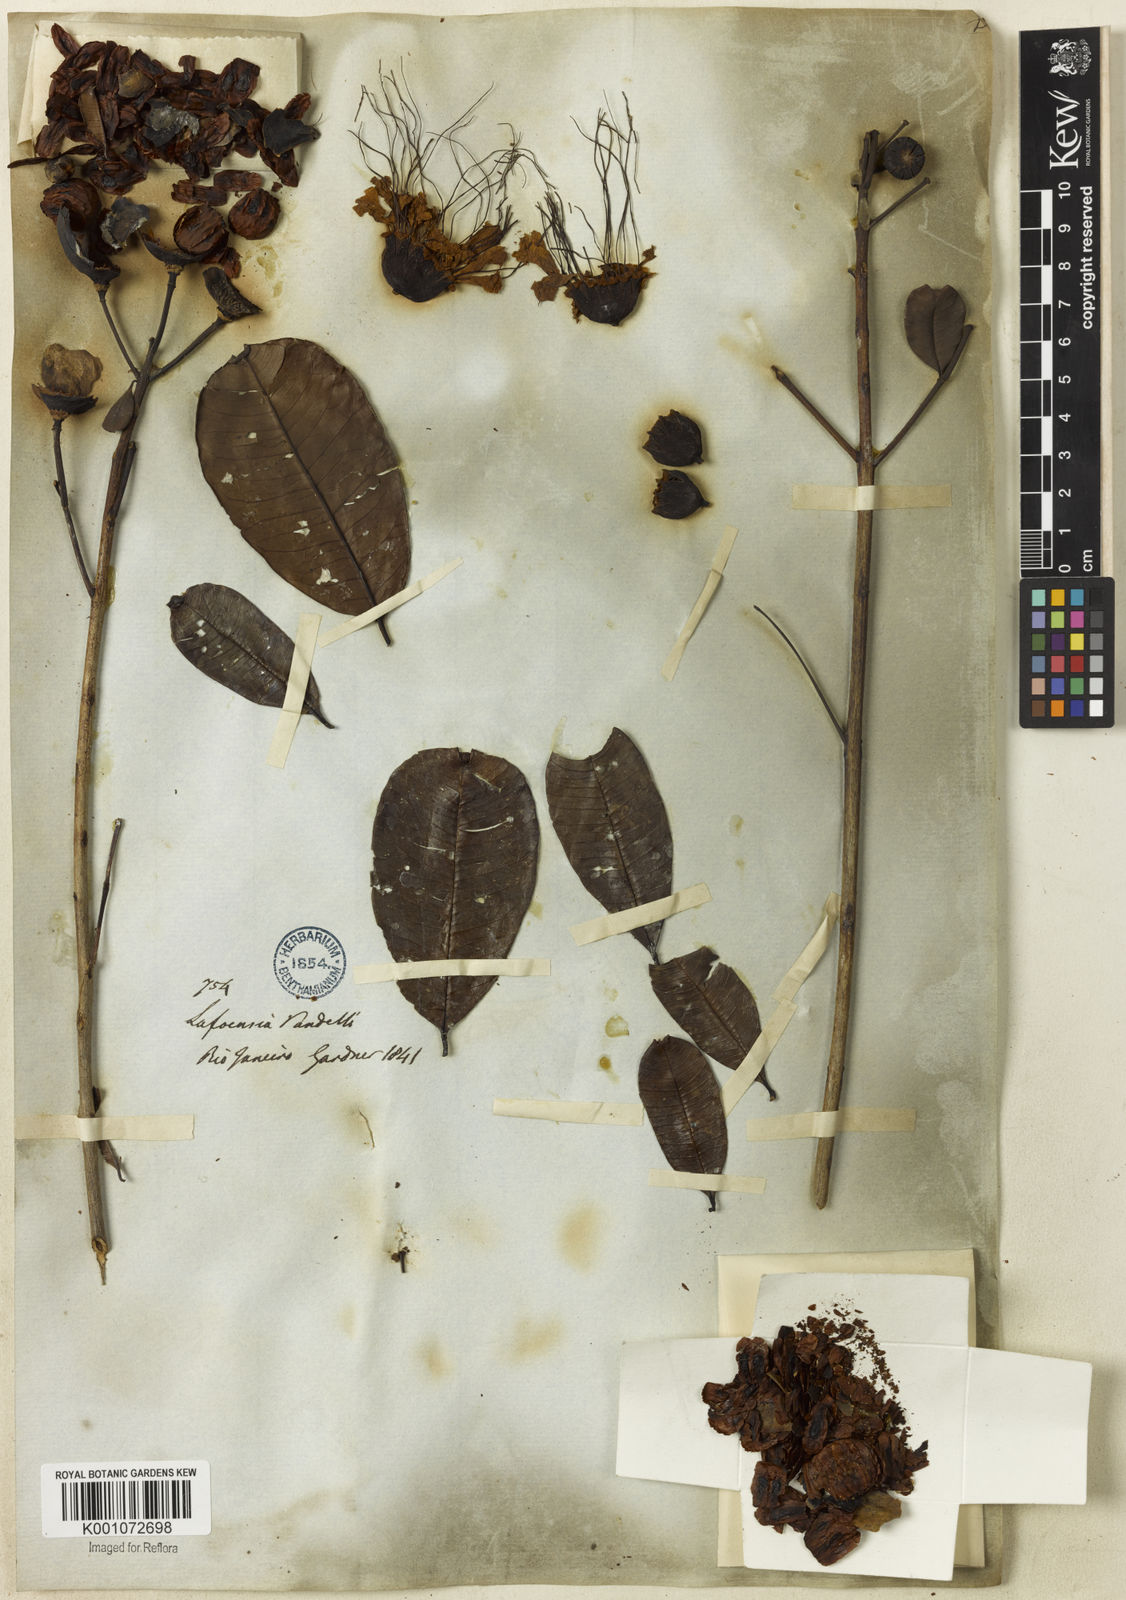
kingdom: Plantae
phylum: Tracheophyta
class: Magnoliopsida
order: Myrtales
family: Lythraceae
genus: Lafoensia
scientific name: Lafoensia vandelliana
